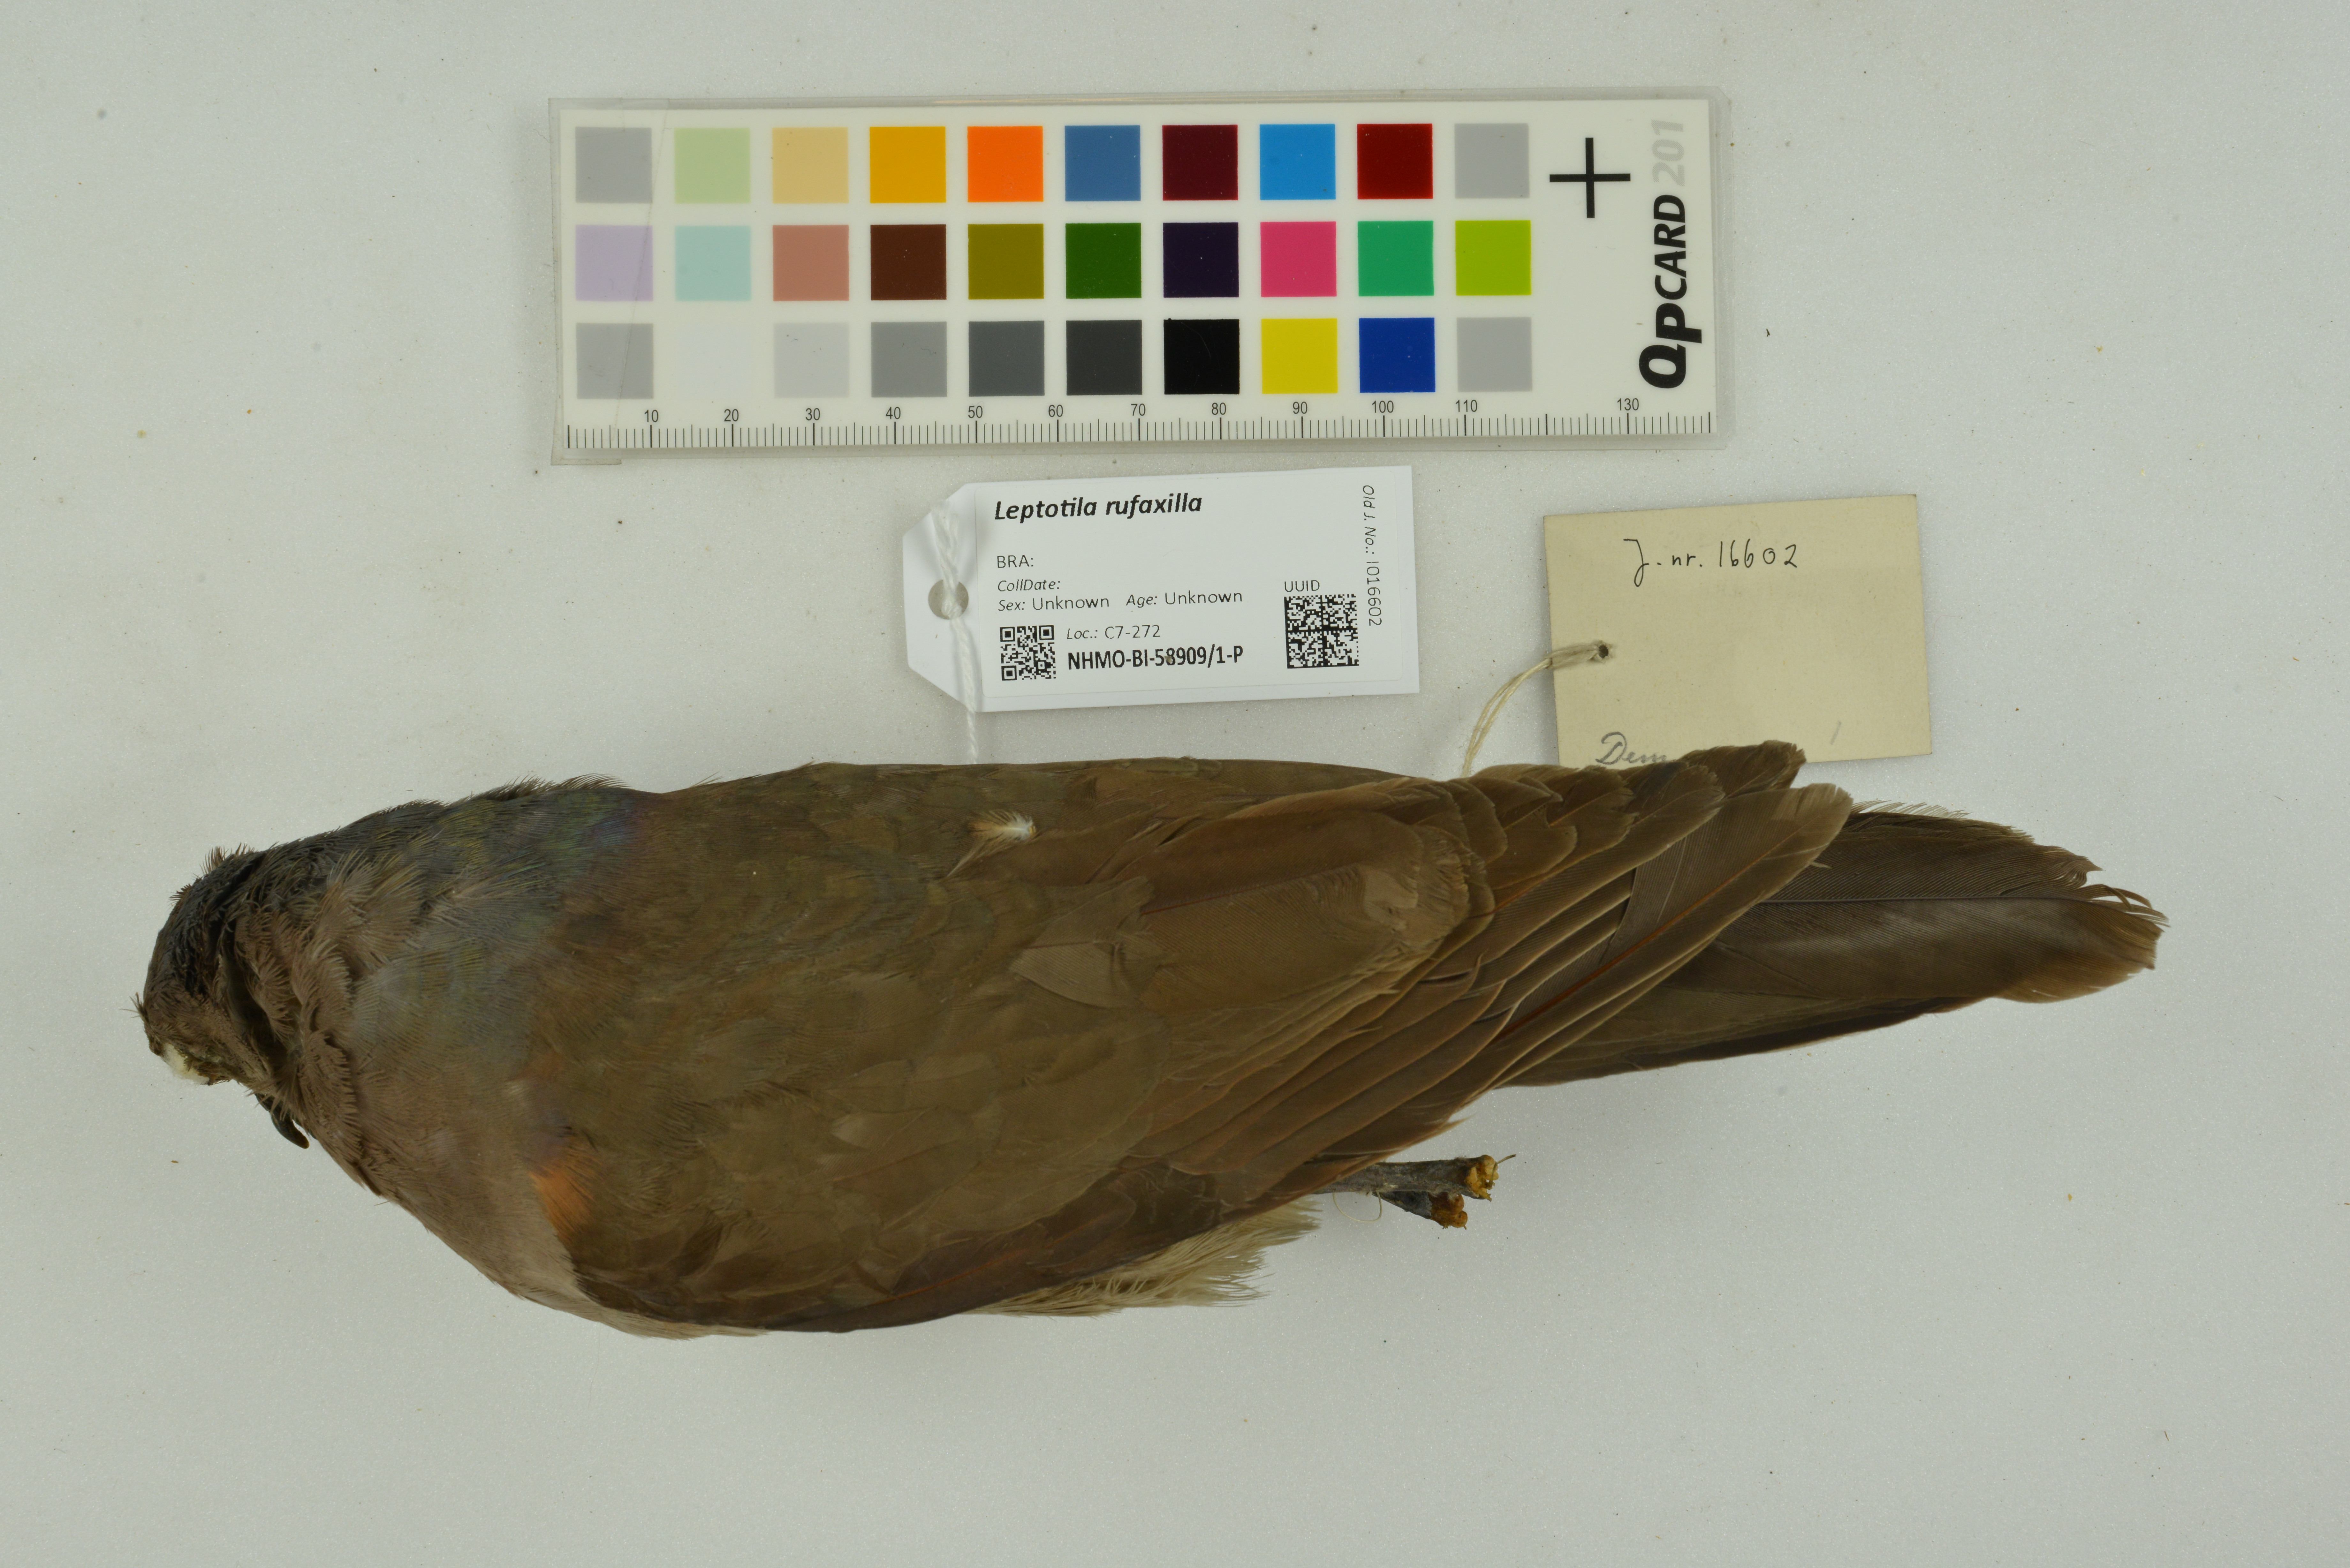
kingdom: Animalia
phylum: Chordata
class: Aves
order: Columbiformes
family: Columbidae
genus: Leptotila
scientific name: Leptotila rufaxilla
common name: Grey-fronted dove
